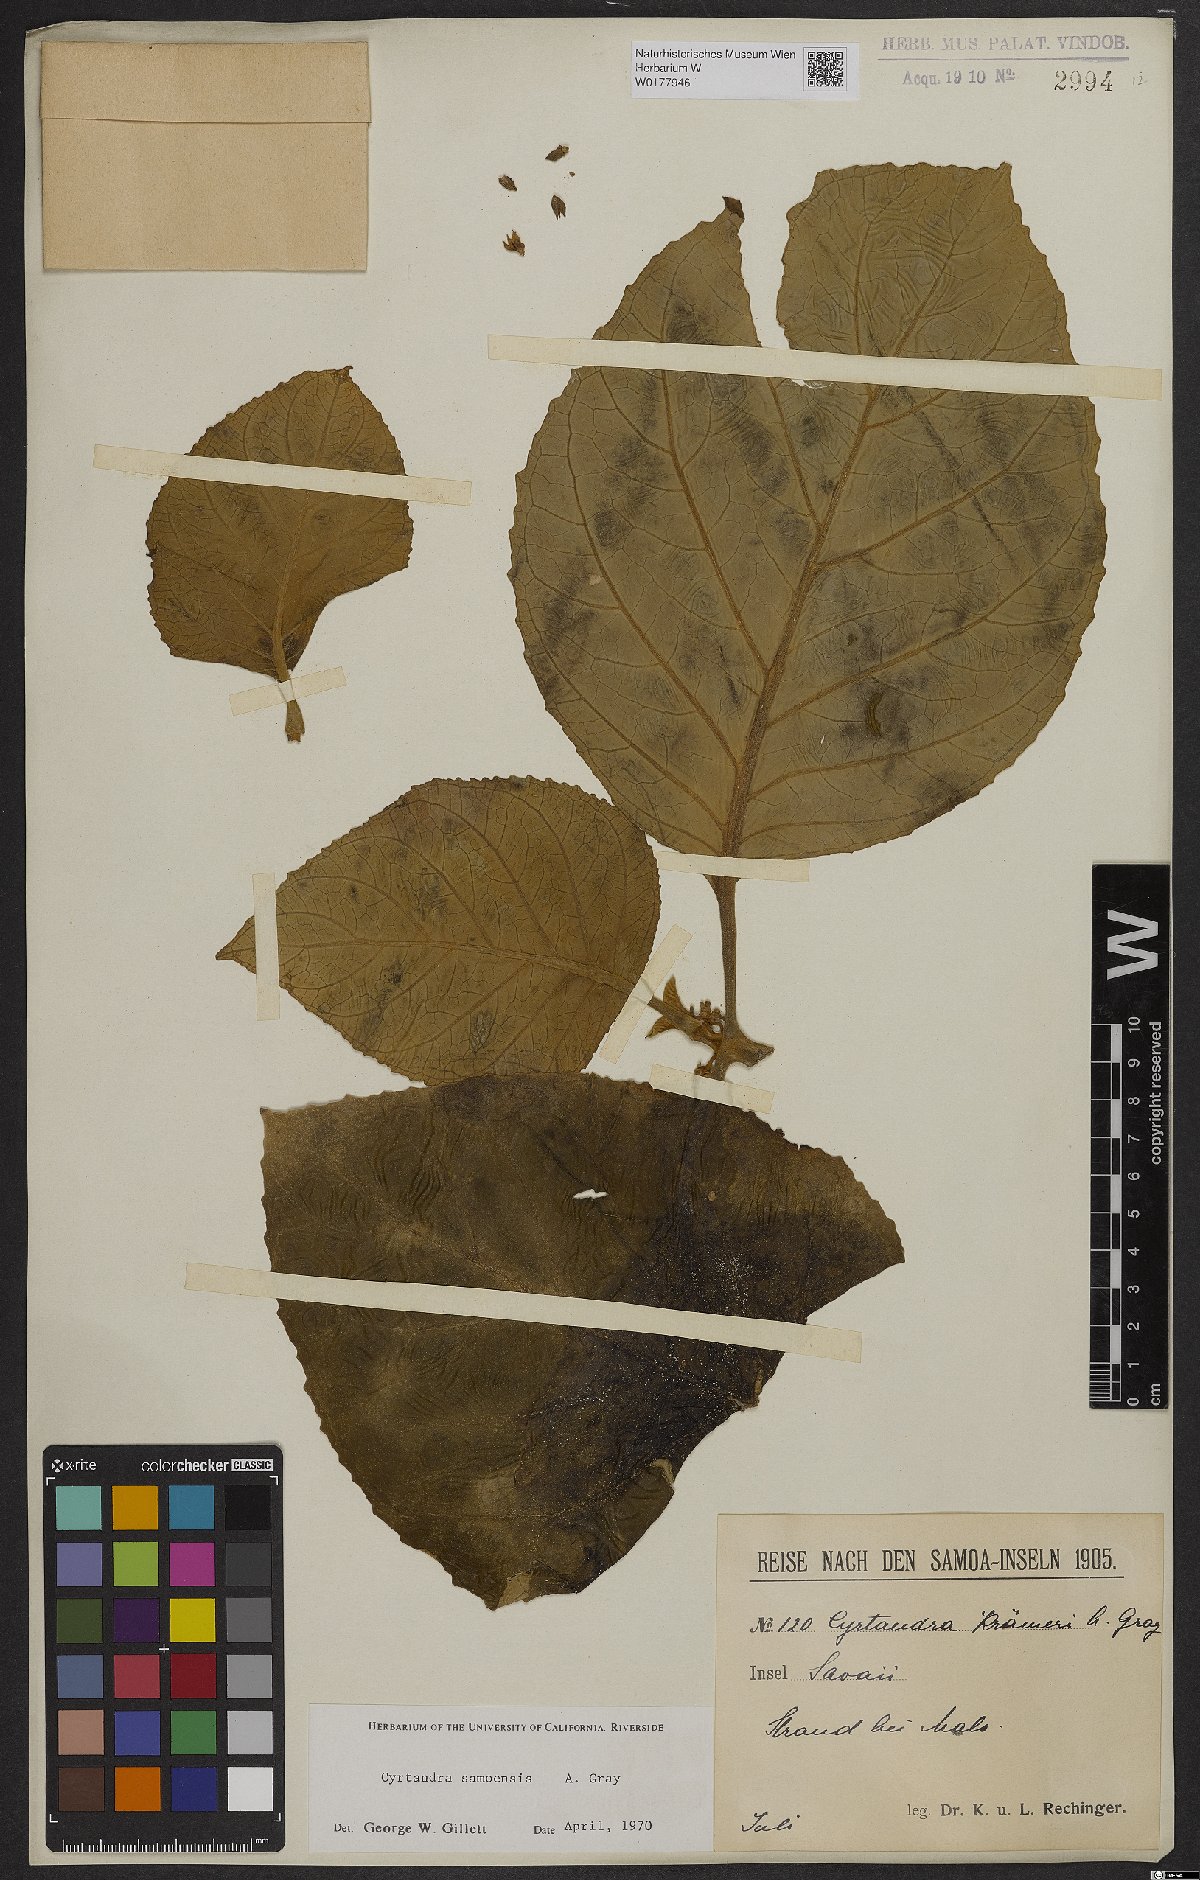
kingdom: Plantae
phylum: Tracheophyta
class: Magnoliopsida
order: Lamiales
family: Gesneriaceae
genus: Cyrtandra
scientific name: Cyrtandra samoensis
